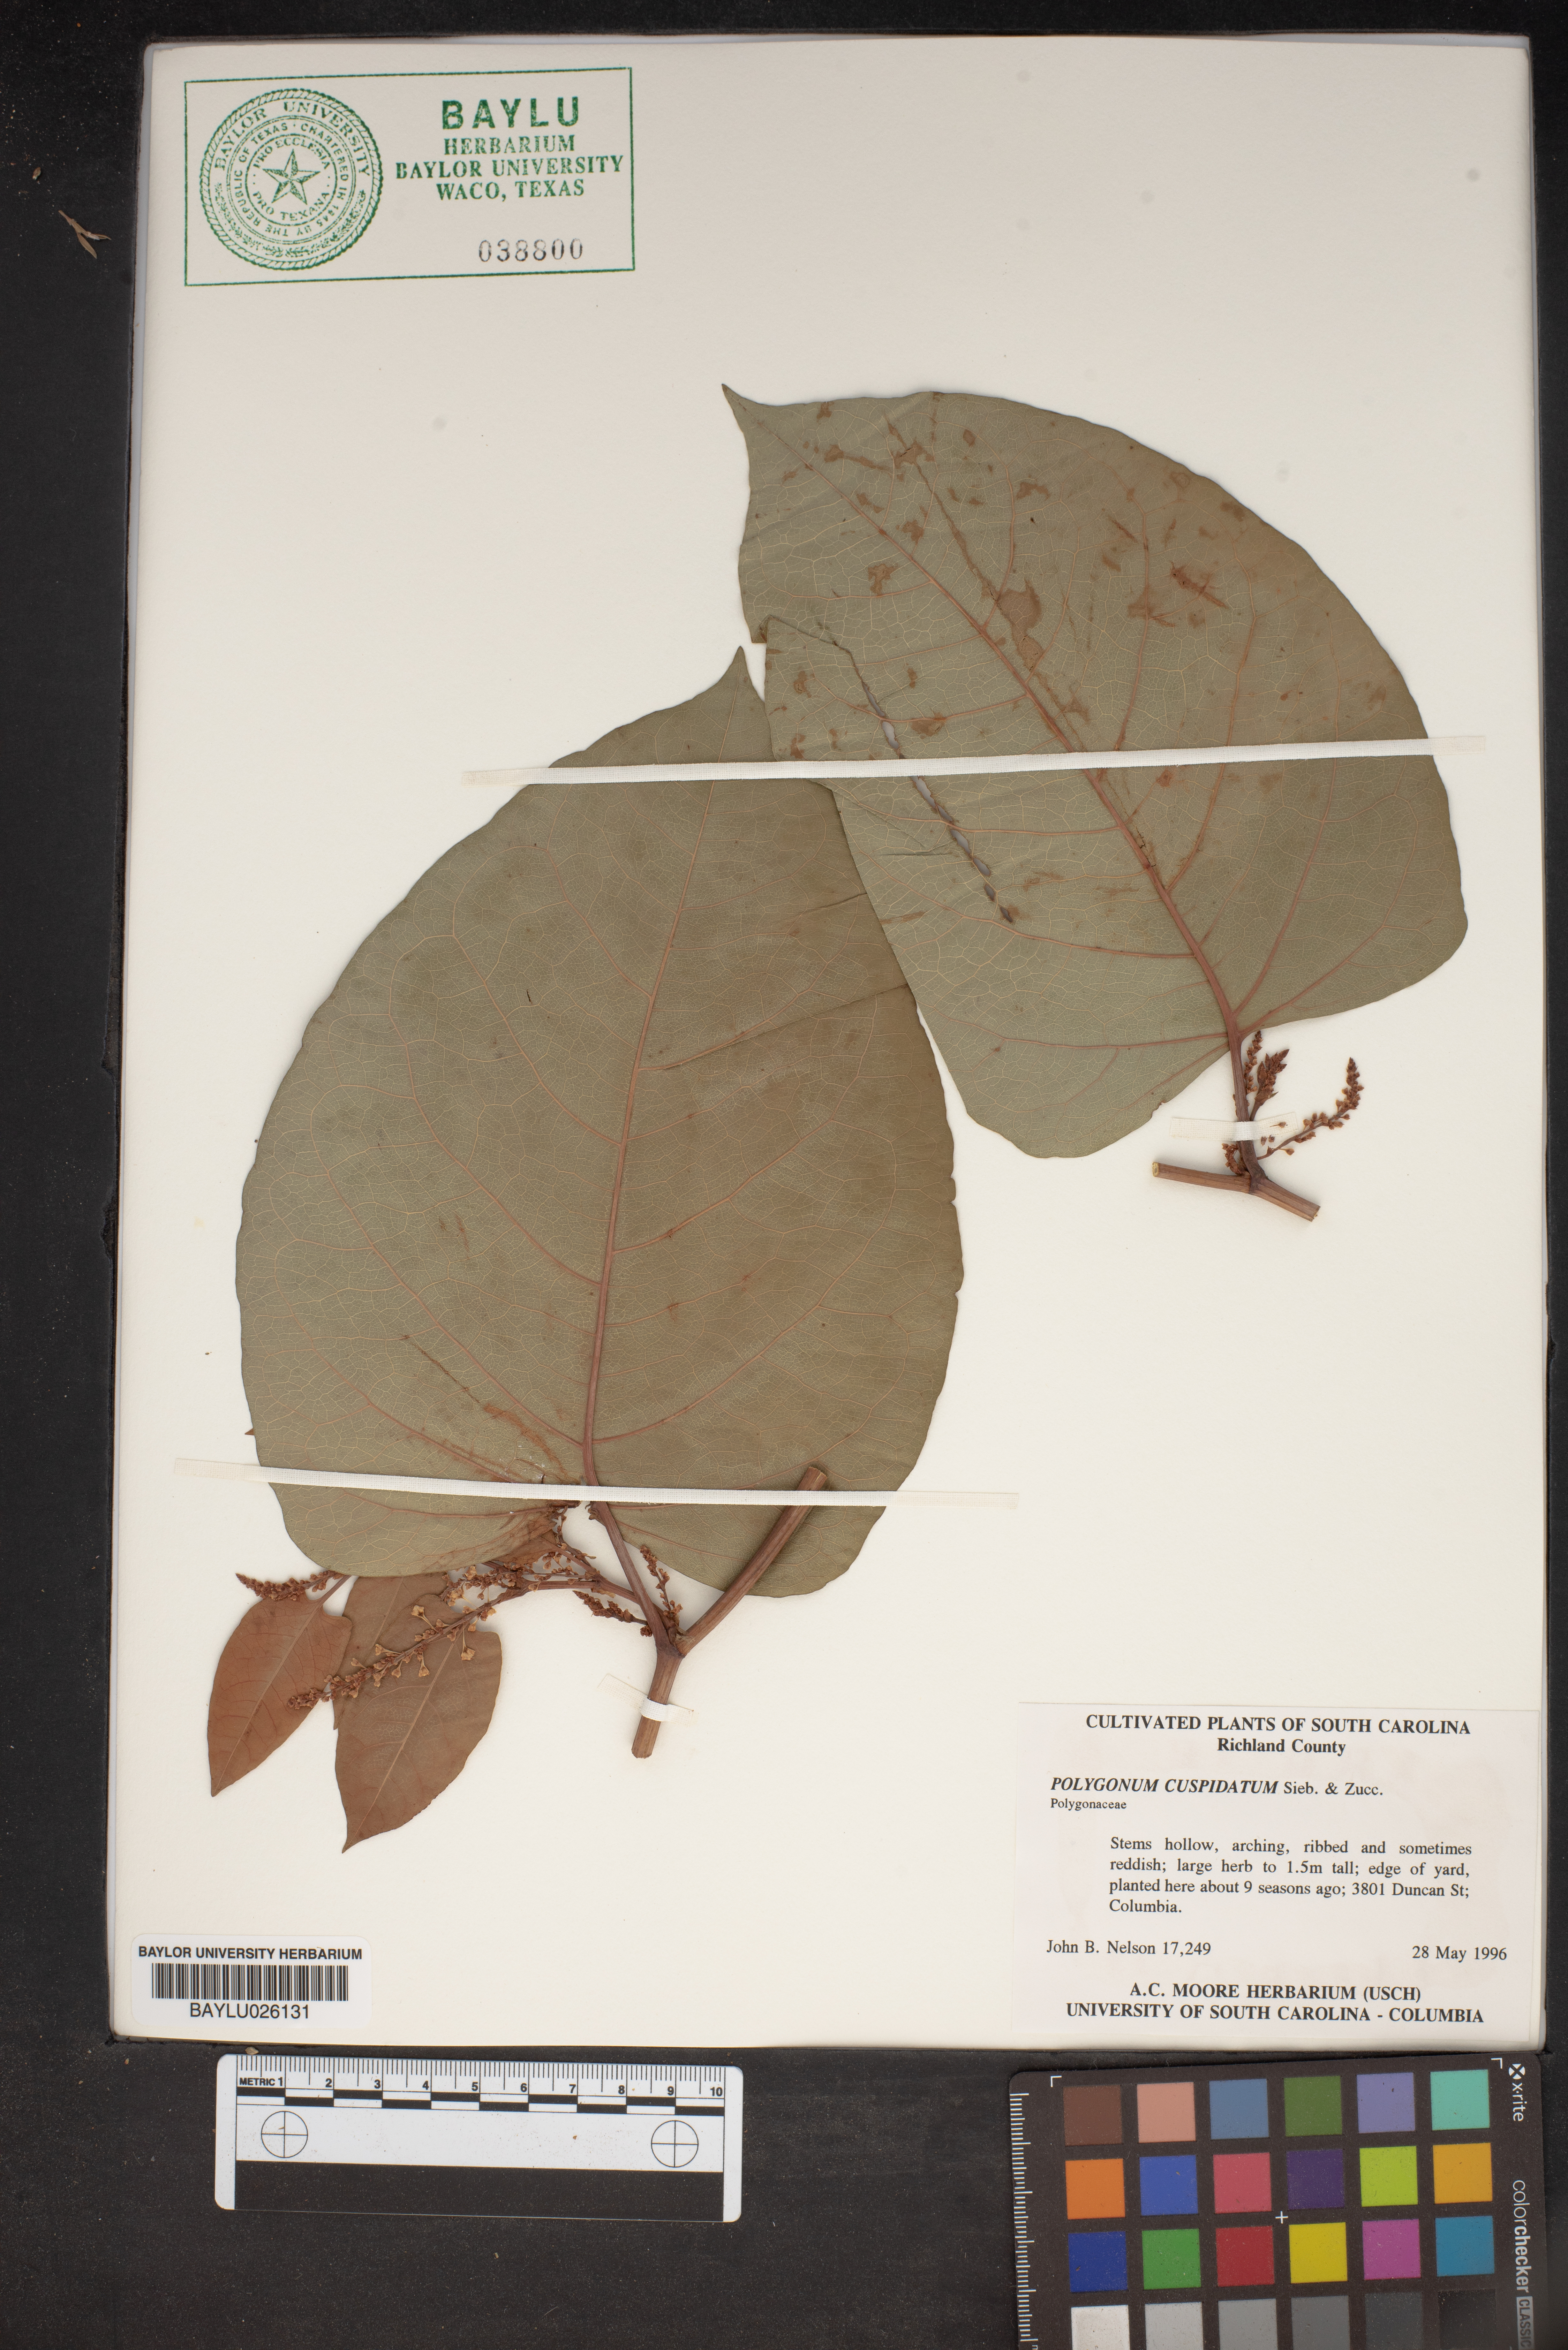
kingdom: Plantae
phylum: Tracheophyta
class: Magnoliopsida
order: Caryophyllales
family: Polygonaceae
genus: Reynoutria
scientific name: Reynoutria japonica
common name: Japanese knotweed
